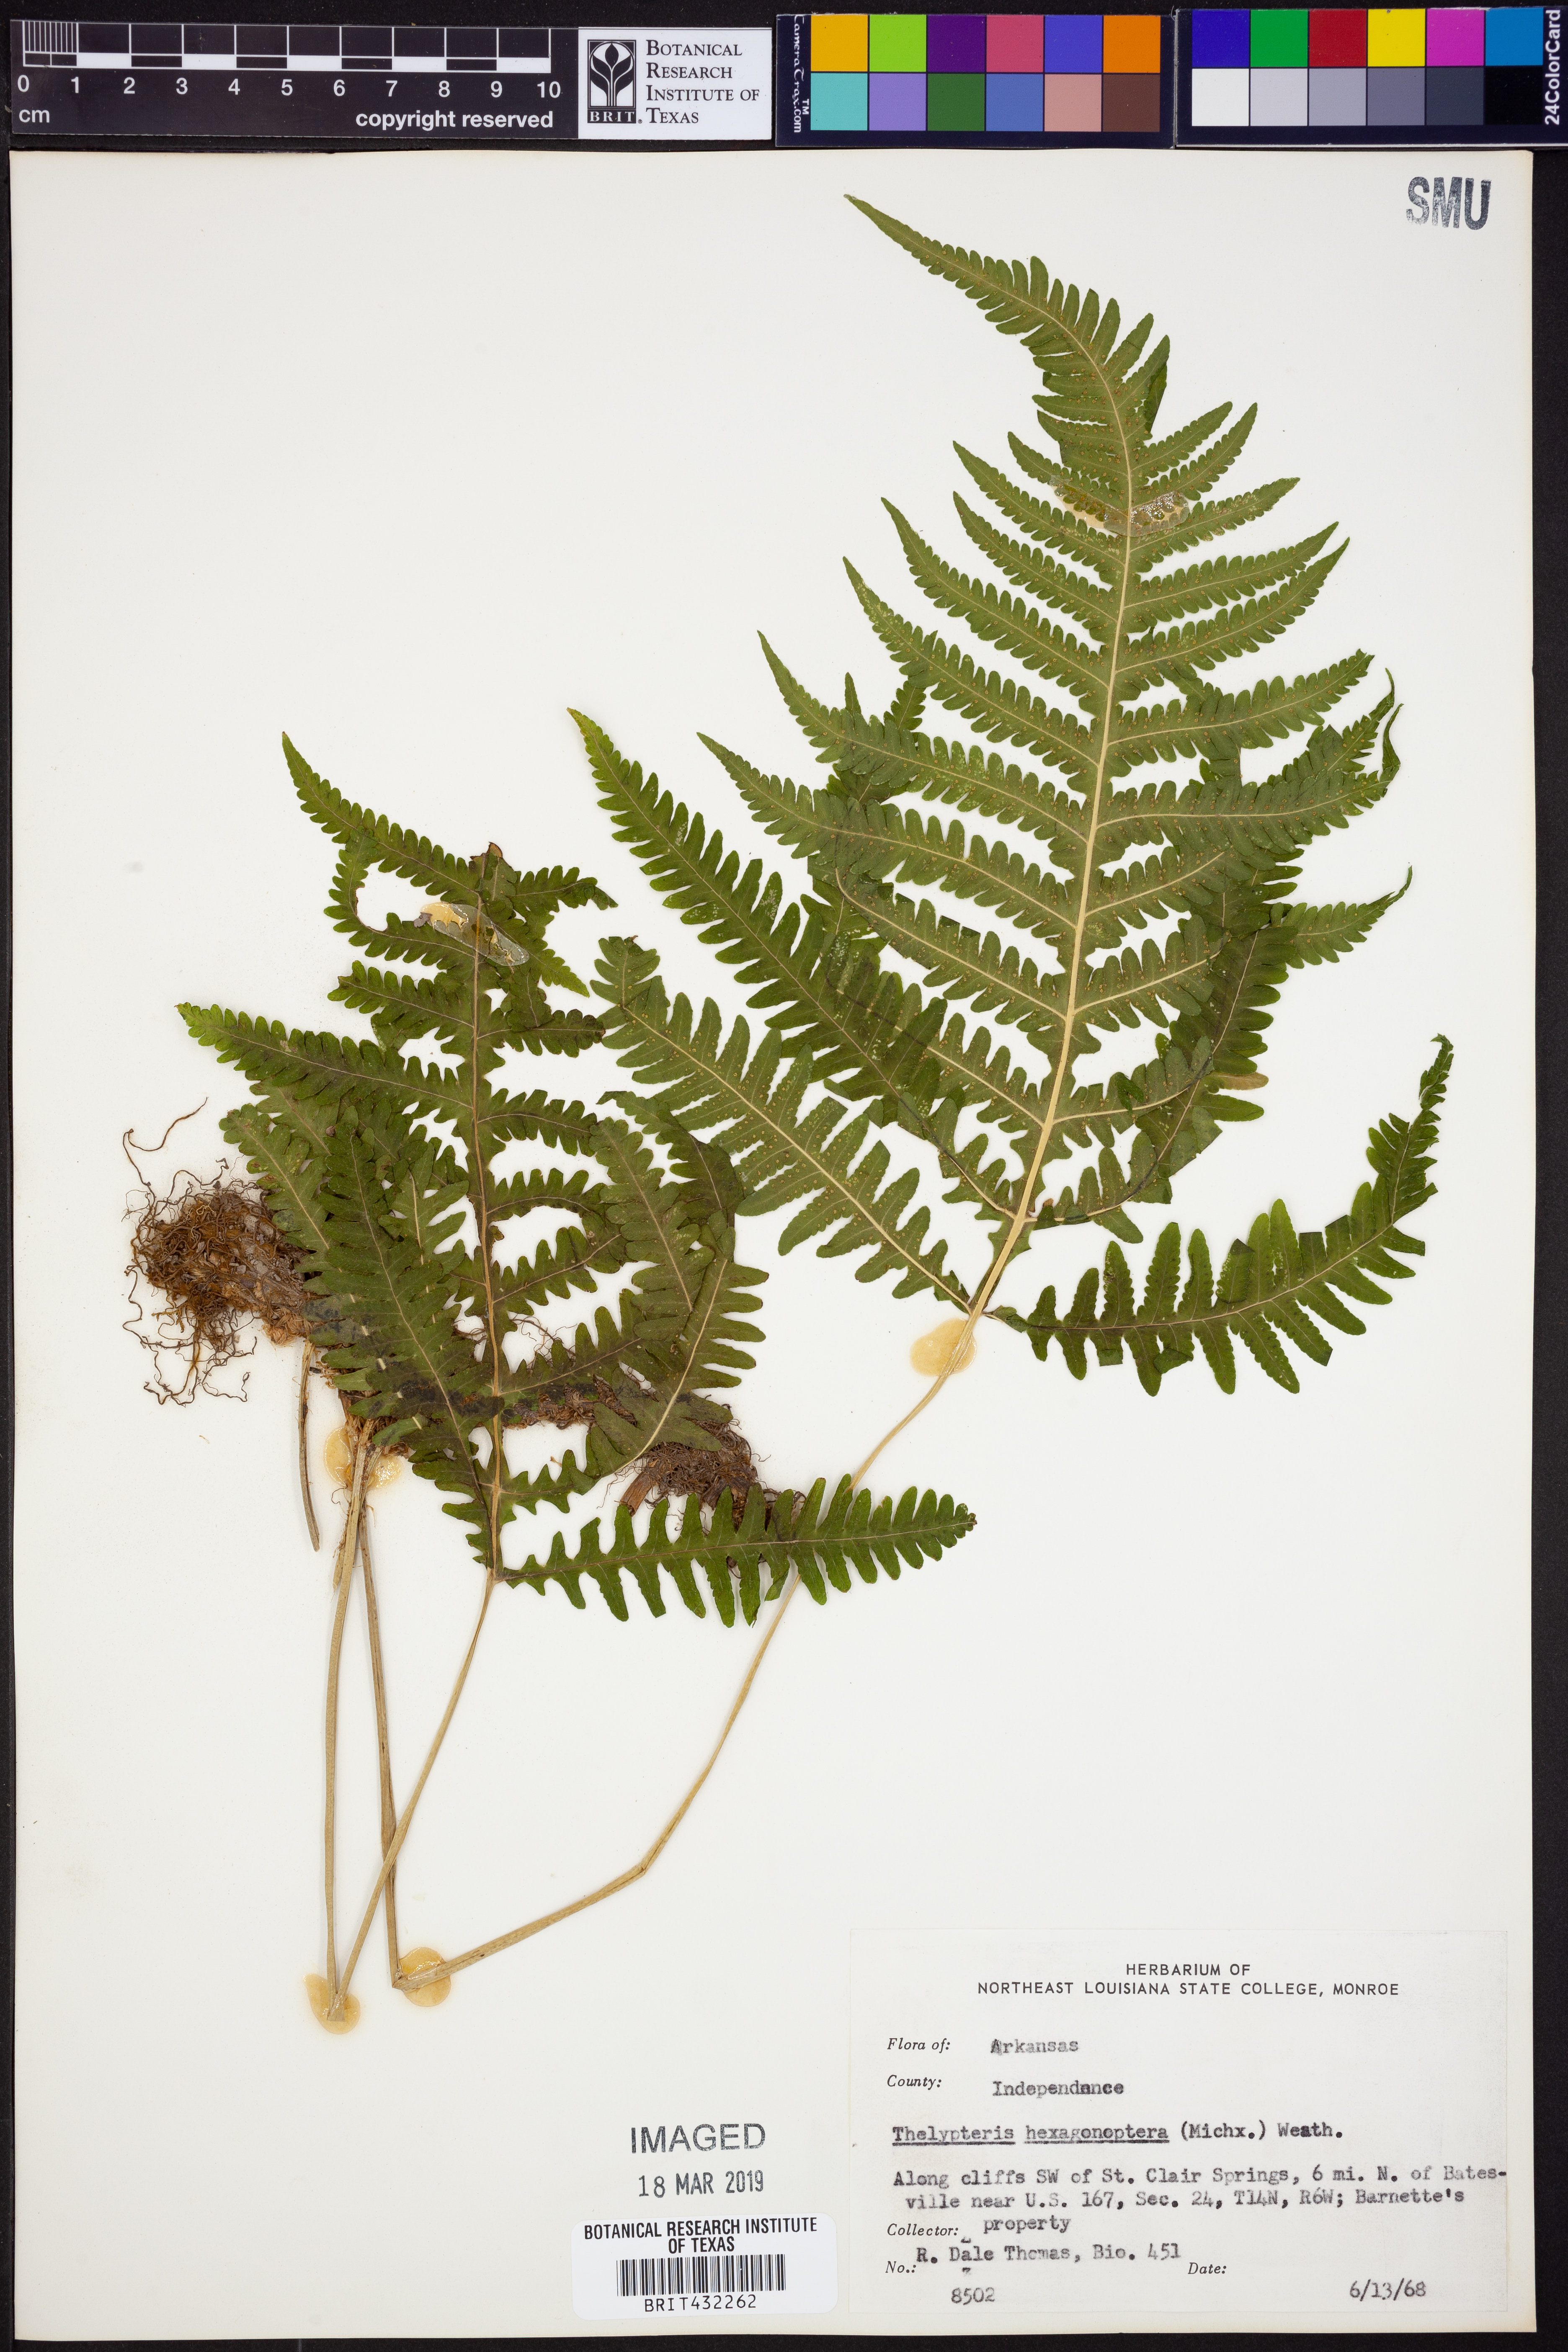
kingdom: Plantae
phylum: Tracheophyta
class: Polypodiopsida
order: Polypodiales
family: Thelypteridaceae
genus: Phegopteris
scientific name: Phegopteris hexagonoptera
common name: Broad beech fern
